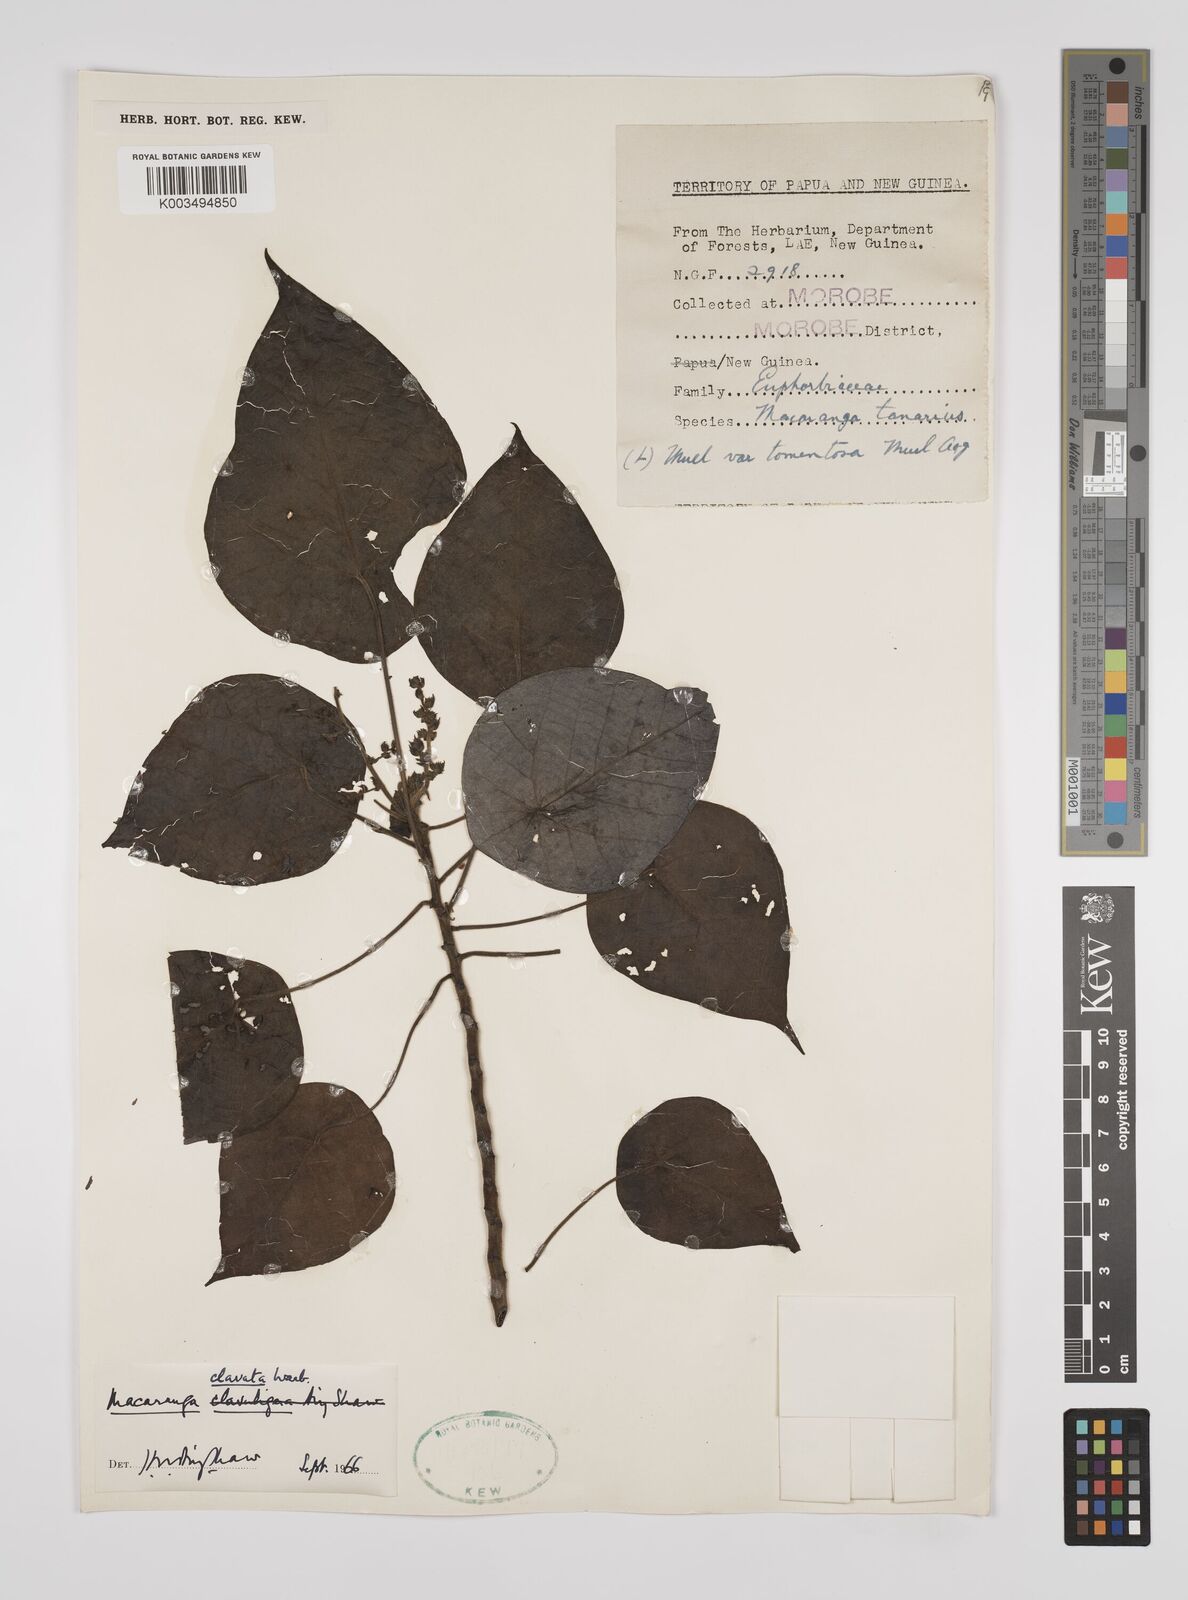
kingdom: Plantae
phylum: Tracheophyta
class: Magnoliopsida
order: Malpighiales
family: Euphorbiaceae
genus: Macaranga
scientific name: Macaranga clavata
